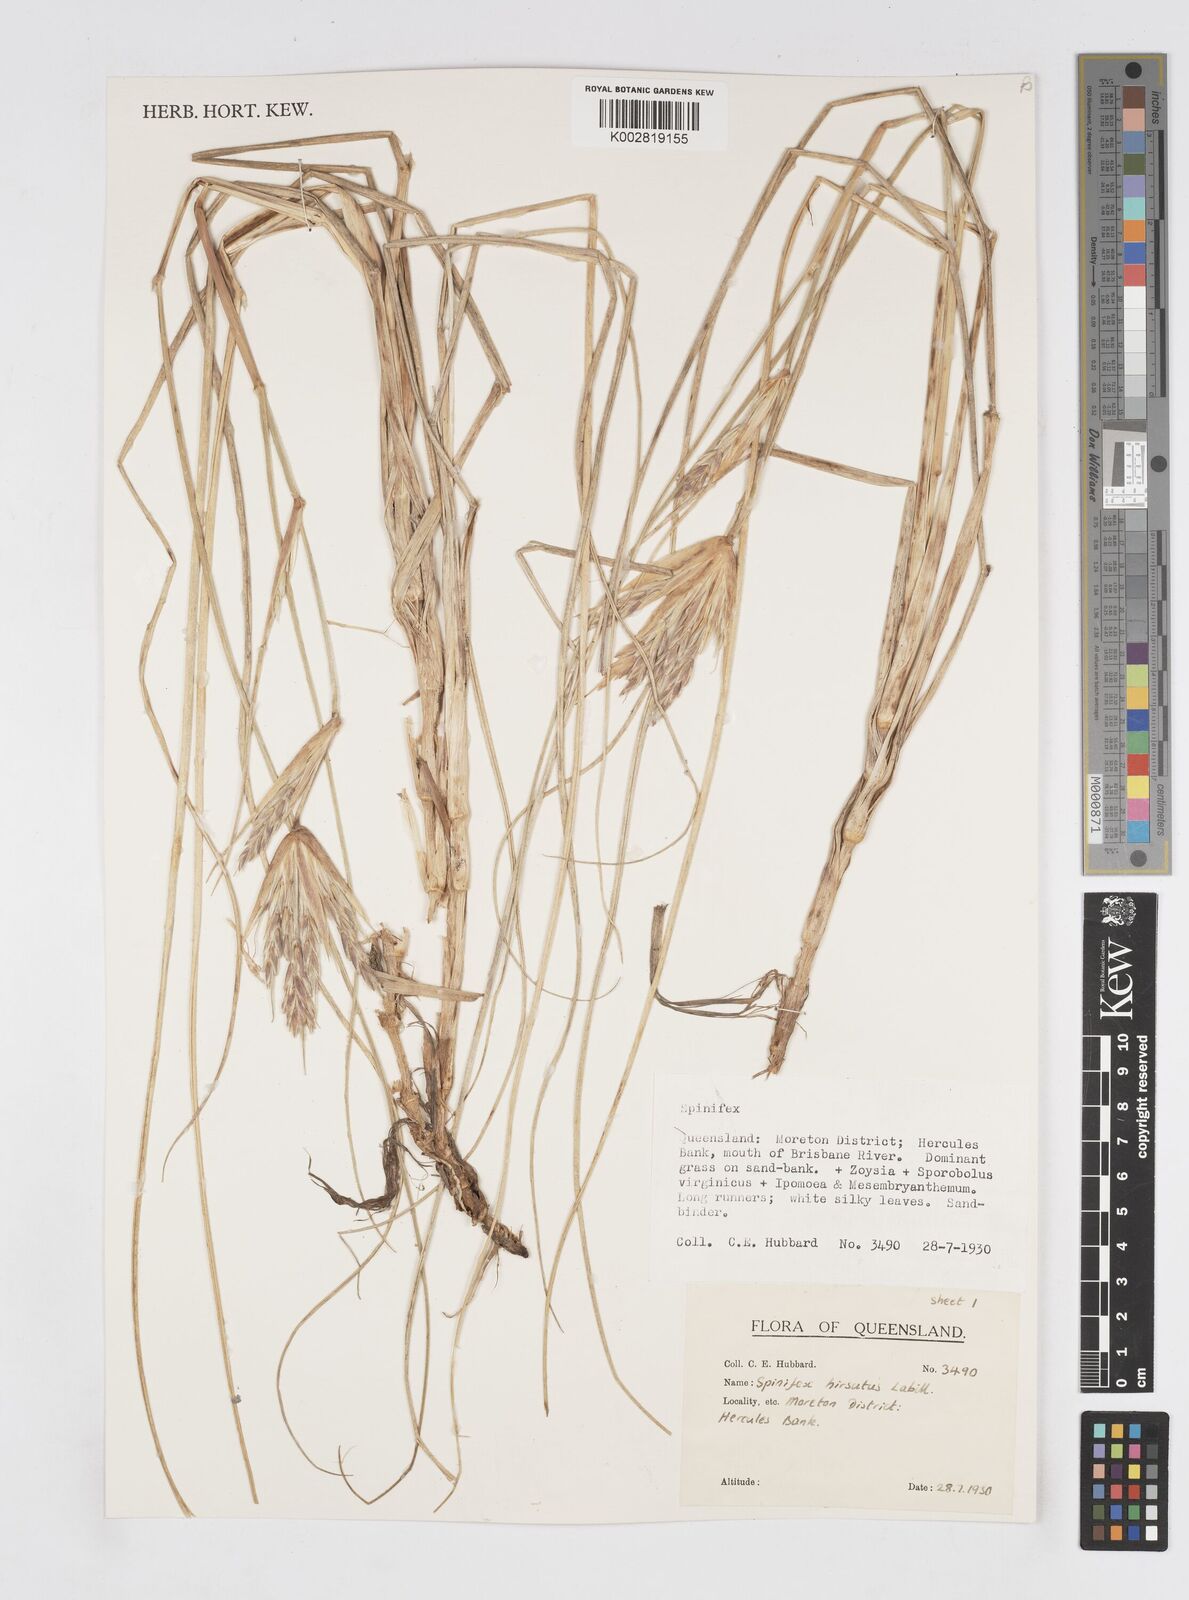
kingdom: Plantae
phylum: Tracheophyta
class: Liliopsida
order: Poales
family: Poaceae
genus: Spinifex
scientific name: Spinifex hirsutus
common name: Hairy spinifex
